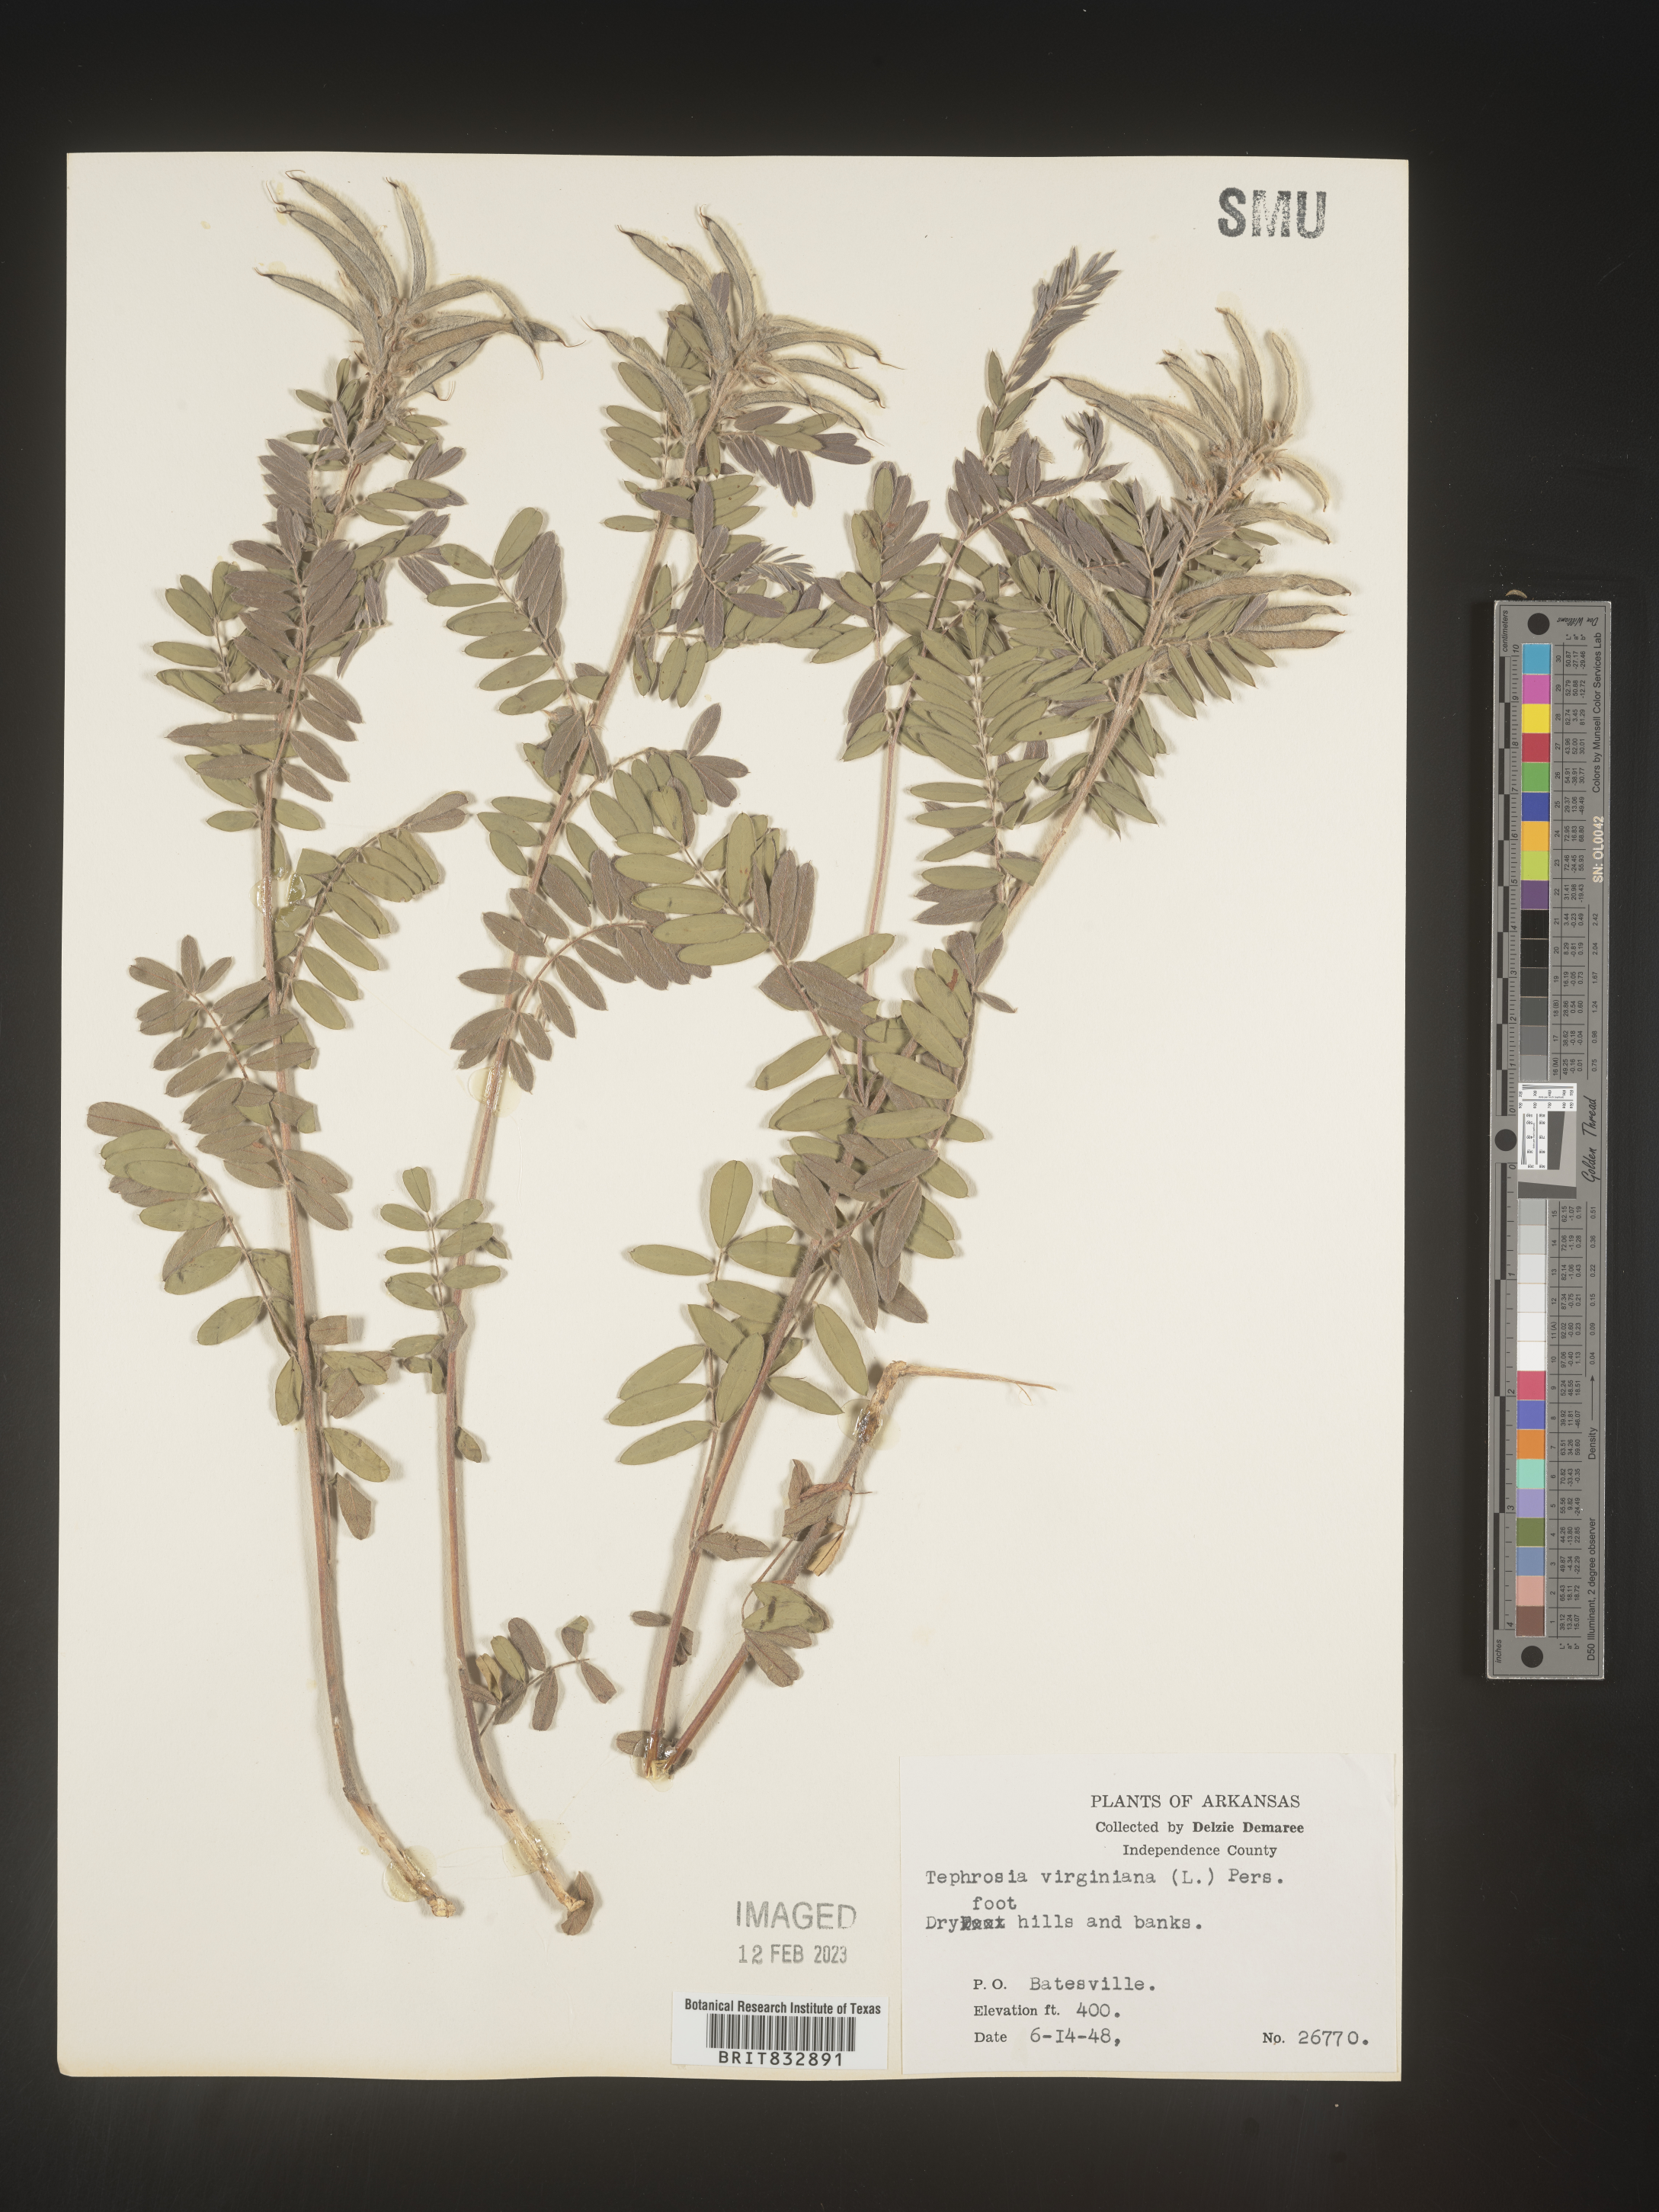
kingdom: Plantae
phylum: Tracheophyta
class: Magnoliopsida
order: Fabales
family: Fabaceae
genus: Tephrosia
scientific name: Tephrosia virginiana
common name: Rabbit-pea
